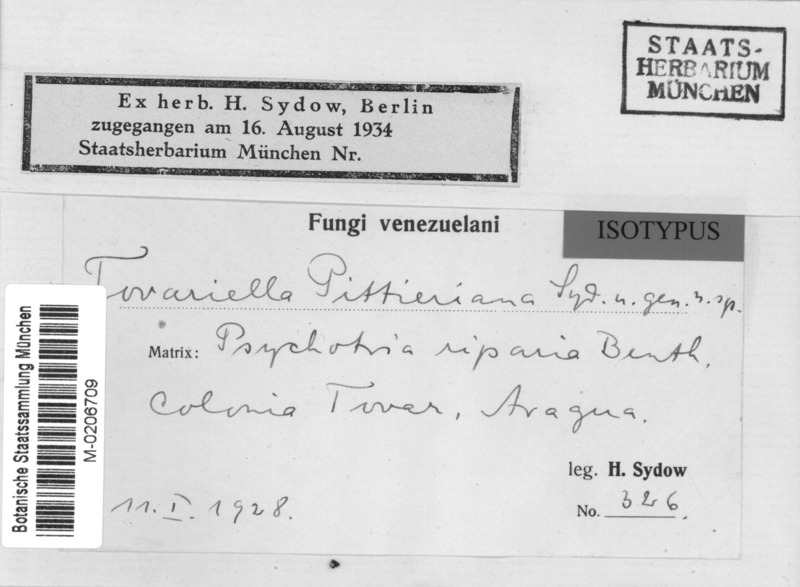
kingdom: Fungi
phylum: Ascomycota
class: Leotiomycetes
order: Helotiales
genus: Tovariella
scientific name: Tovariella pittieriana
